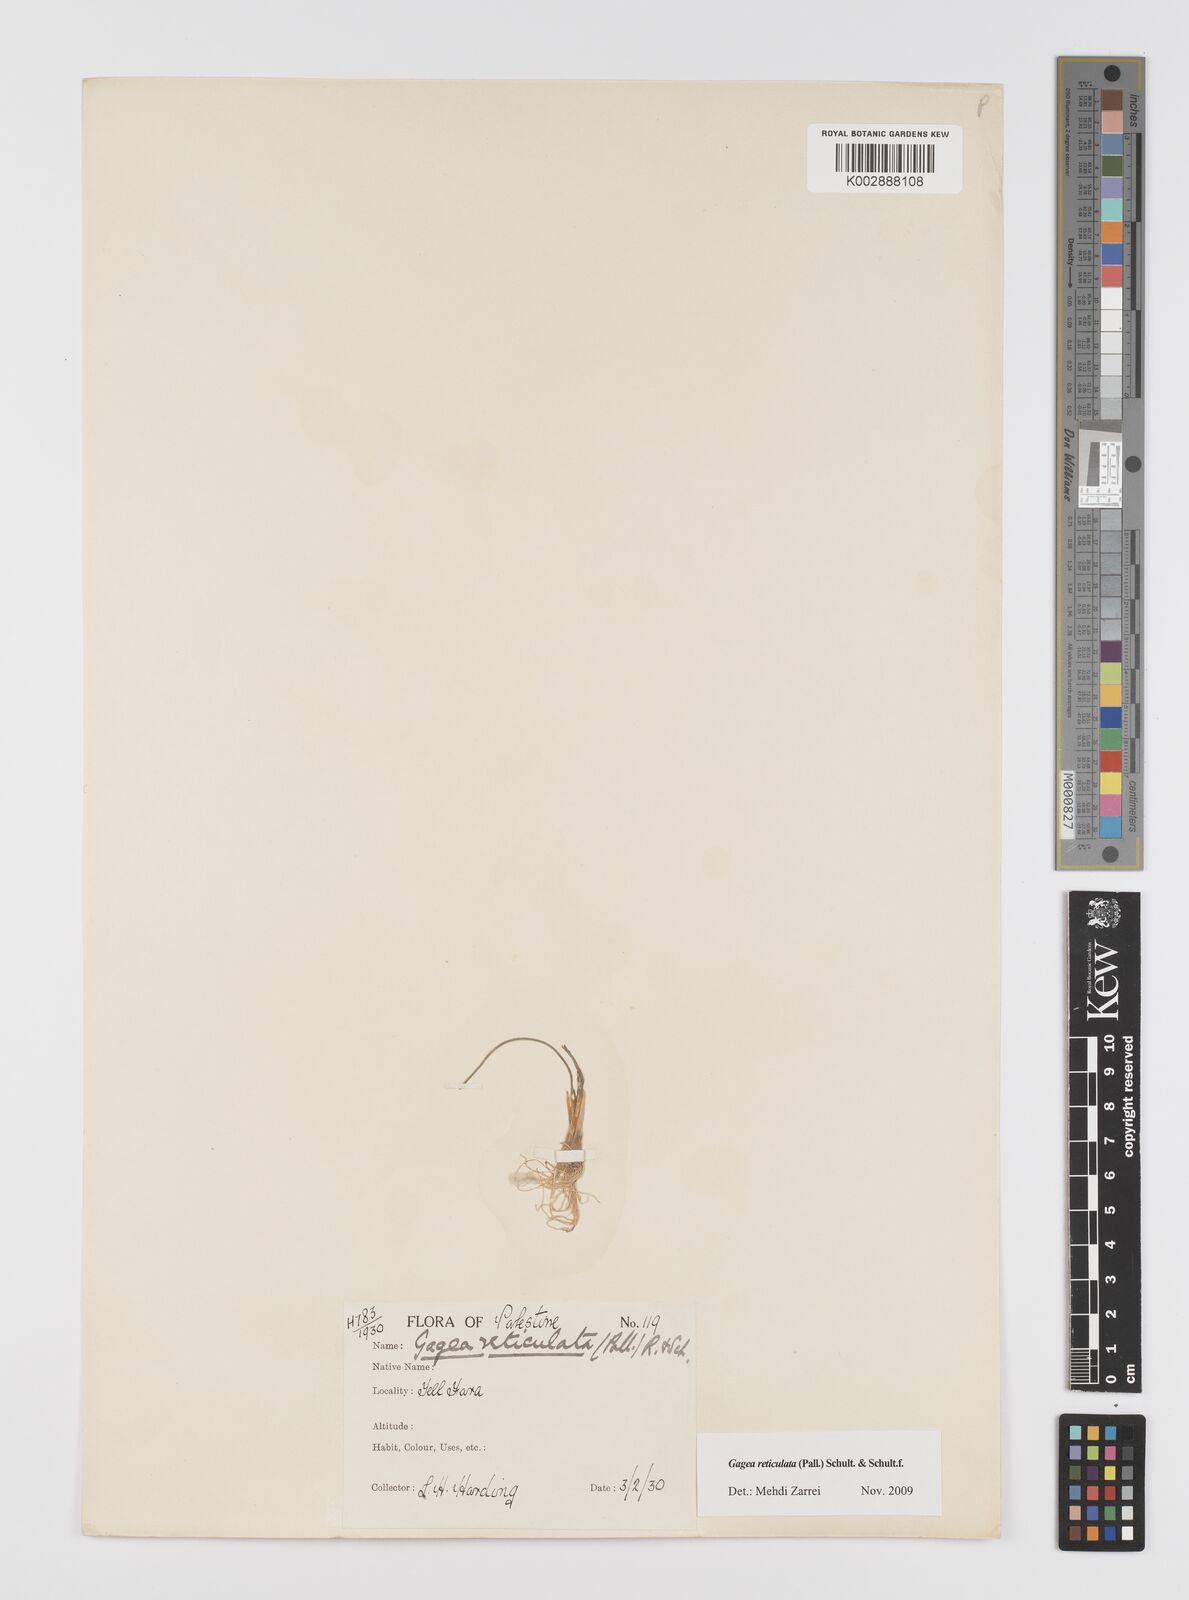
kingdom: Plantae
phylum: Tracheophyta
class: Liliopsida
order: Liliales
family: Liliaceae
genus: Gagea
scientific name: Gagea reticulata
